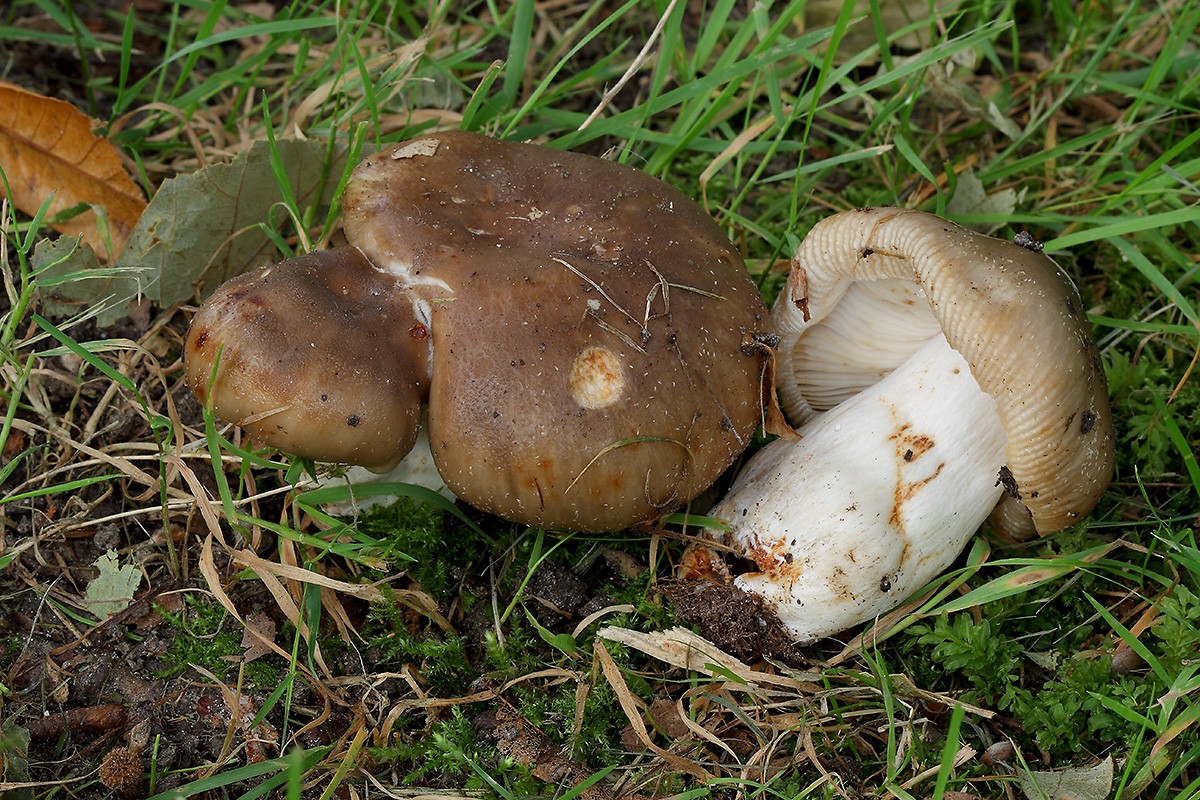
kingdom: Fungi
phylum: Basidiomycota
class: Agaricomycetes
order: Russulales
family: Russulaceae
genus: Russula
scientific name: Russula sororia
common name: brun kam-skørhat
